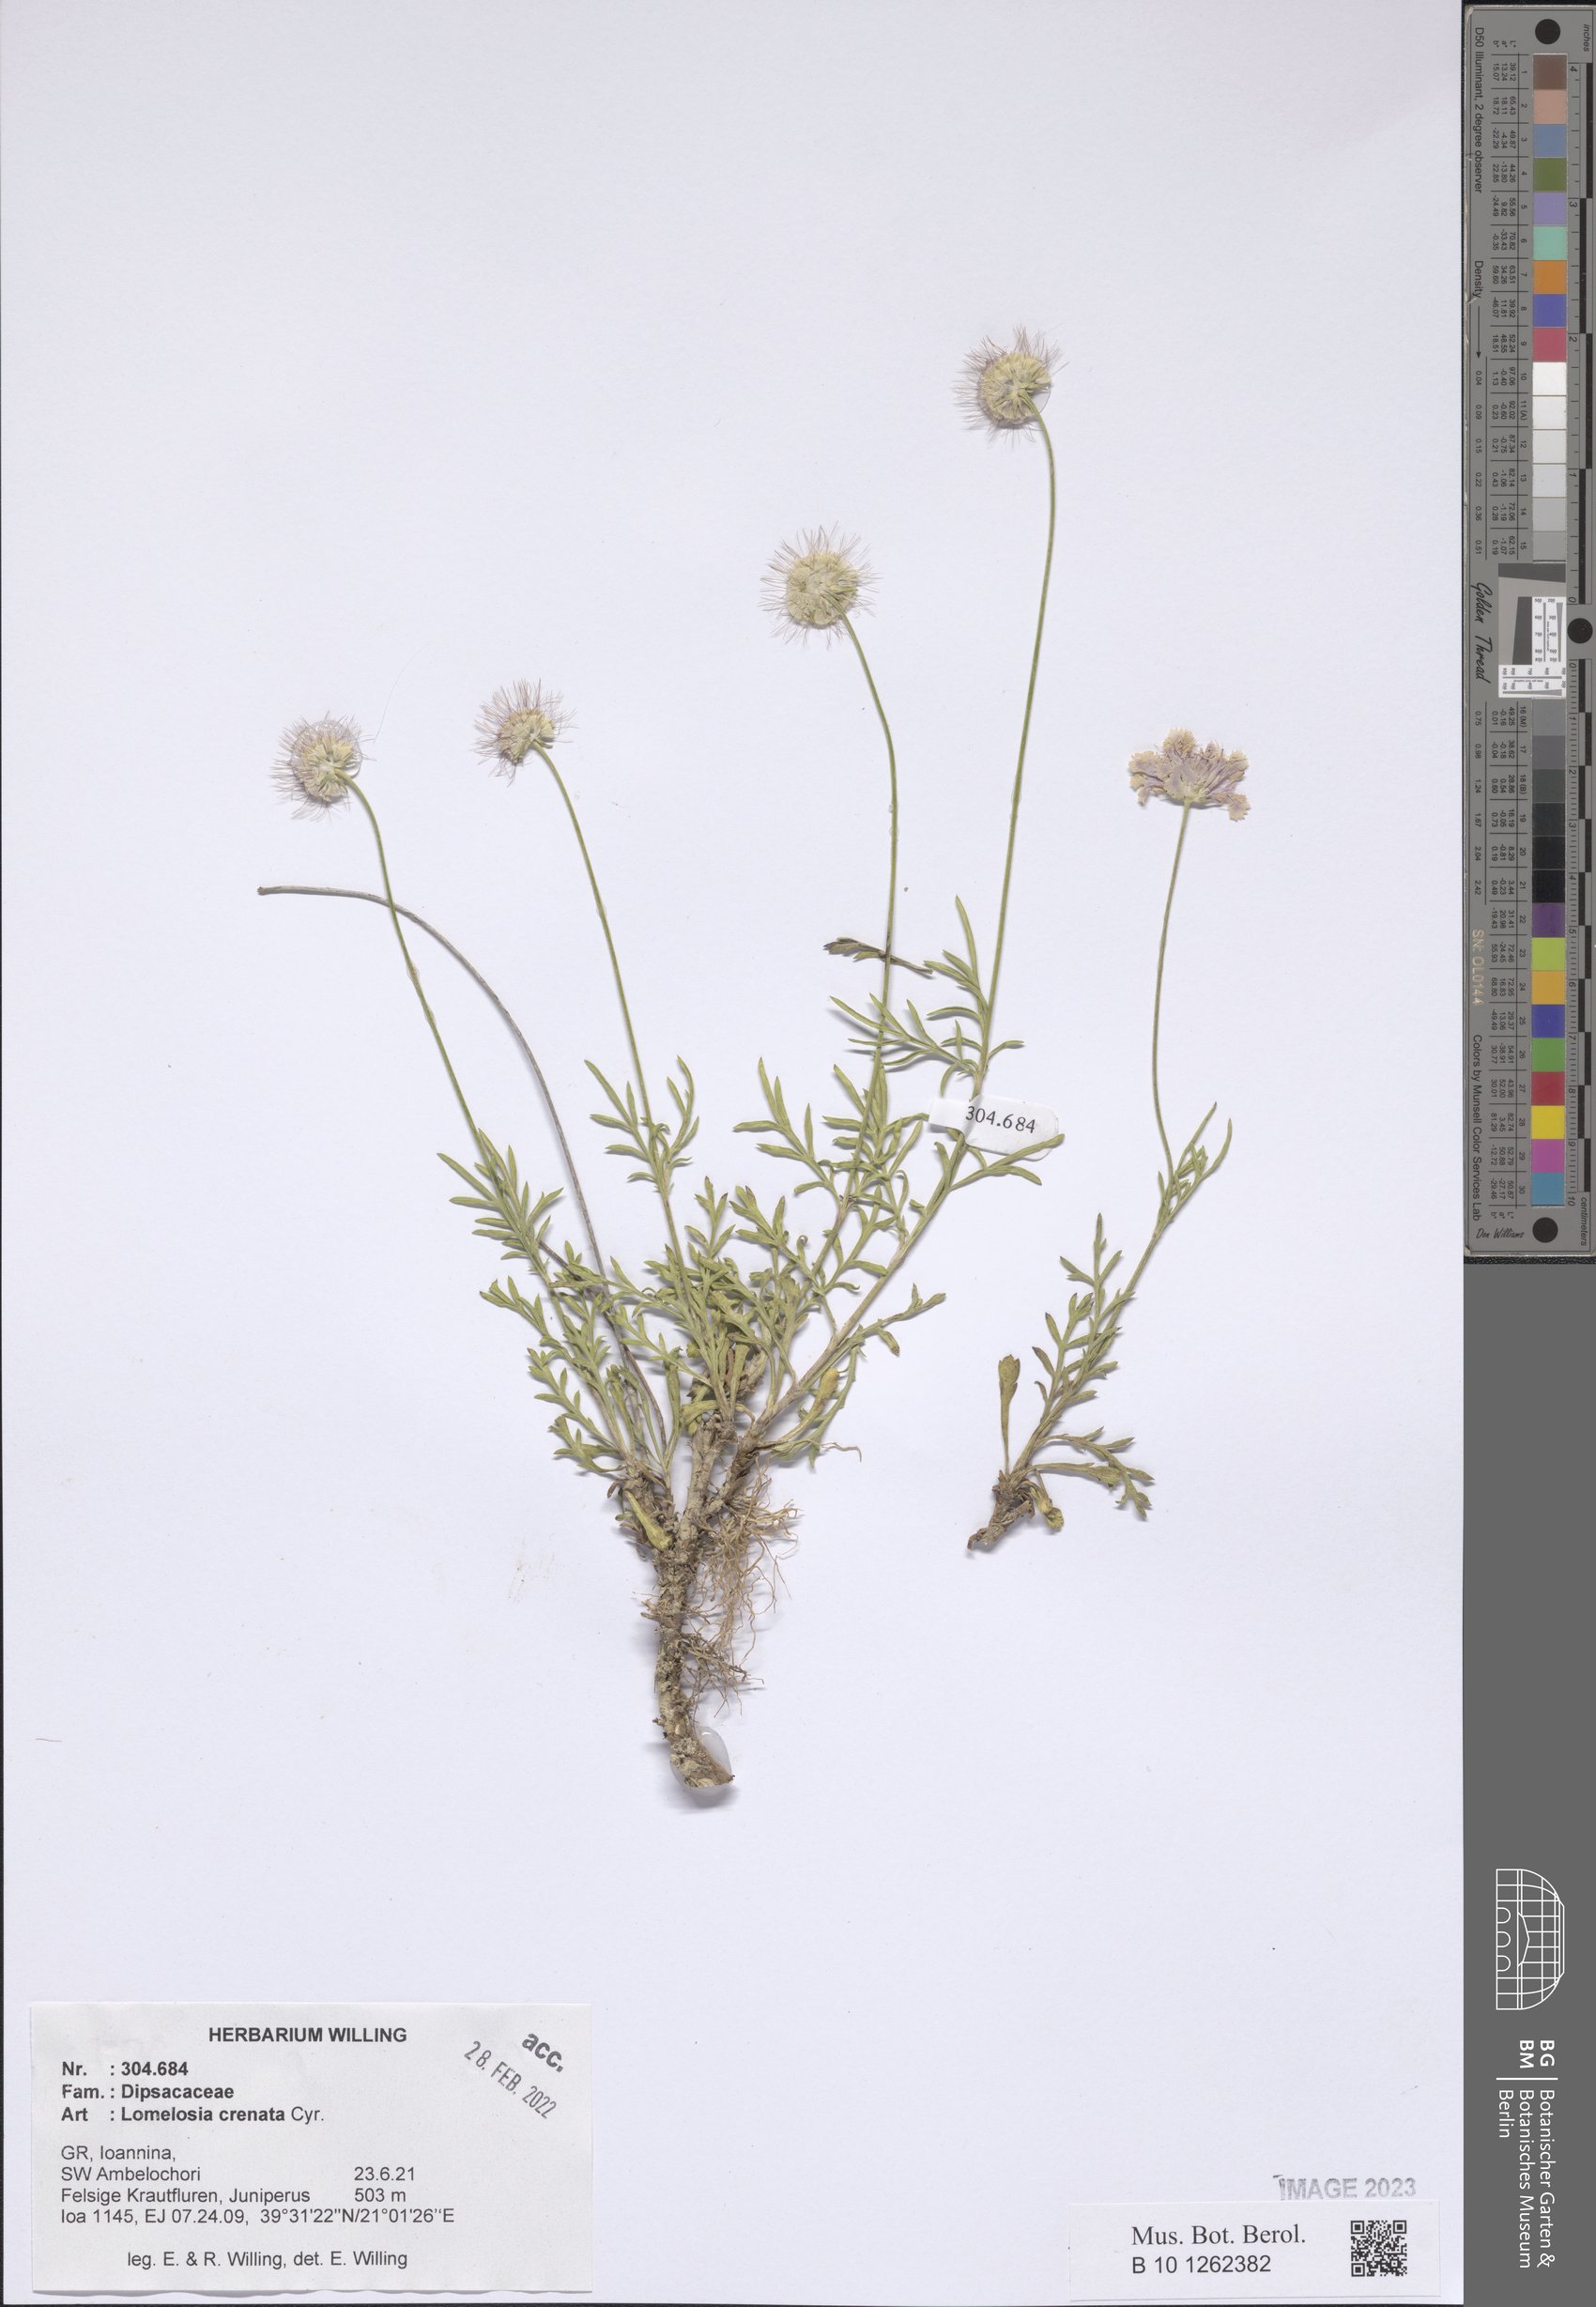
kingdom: Plantae
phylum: Tracheophyta
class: Magnoliopsida
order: Dipsacales
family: Caprifoliaceae
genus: Lomelosia
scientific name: Lomelosia crenata
